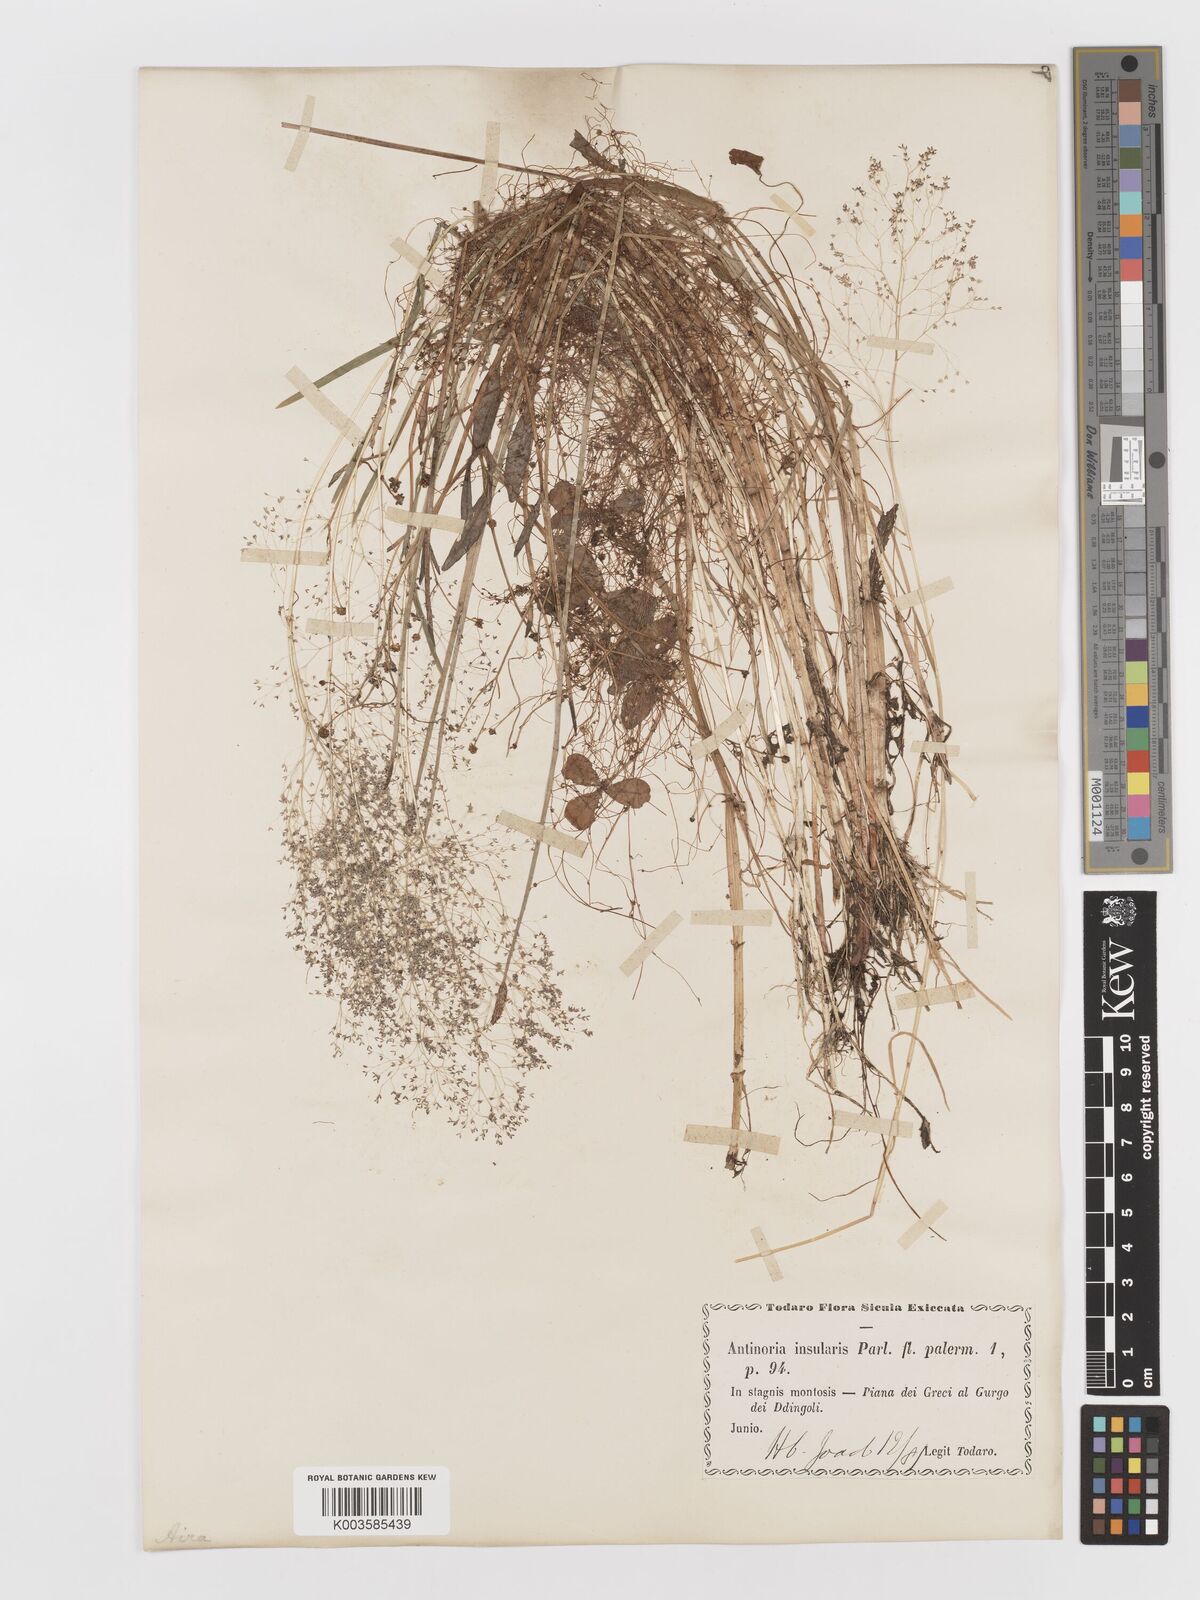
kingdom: Plantae
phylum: Tracheophyta
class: Liliopsida
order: Poales
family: Poaceae
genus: Antinoria
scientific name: Antinoria insularis
